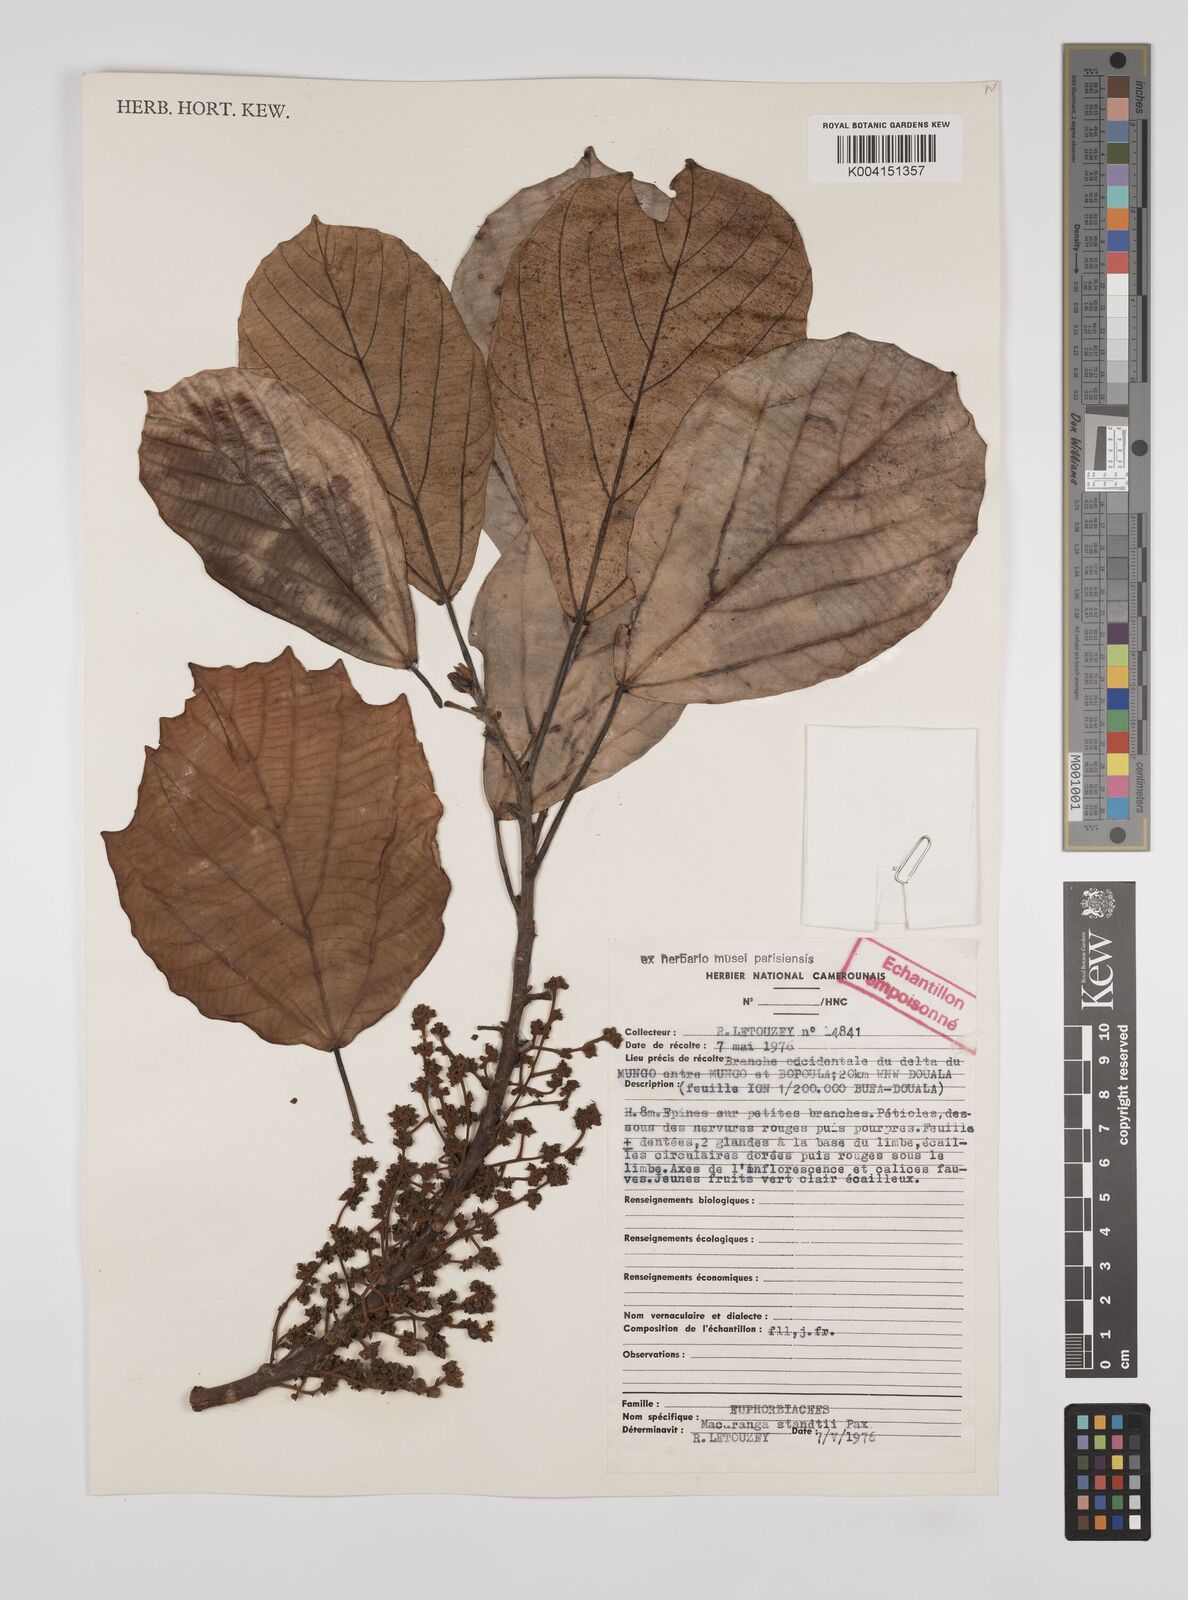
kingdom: Plantae
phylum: Tracheophyta
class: Magnoliopsida
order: Malpighiales
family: Euphorbiaceae
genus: Macaranga
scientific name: Macaranga staudtii
